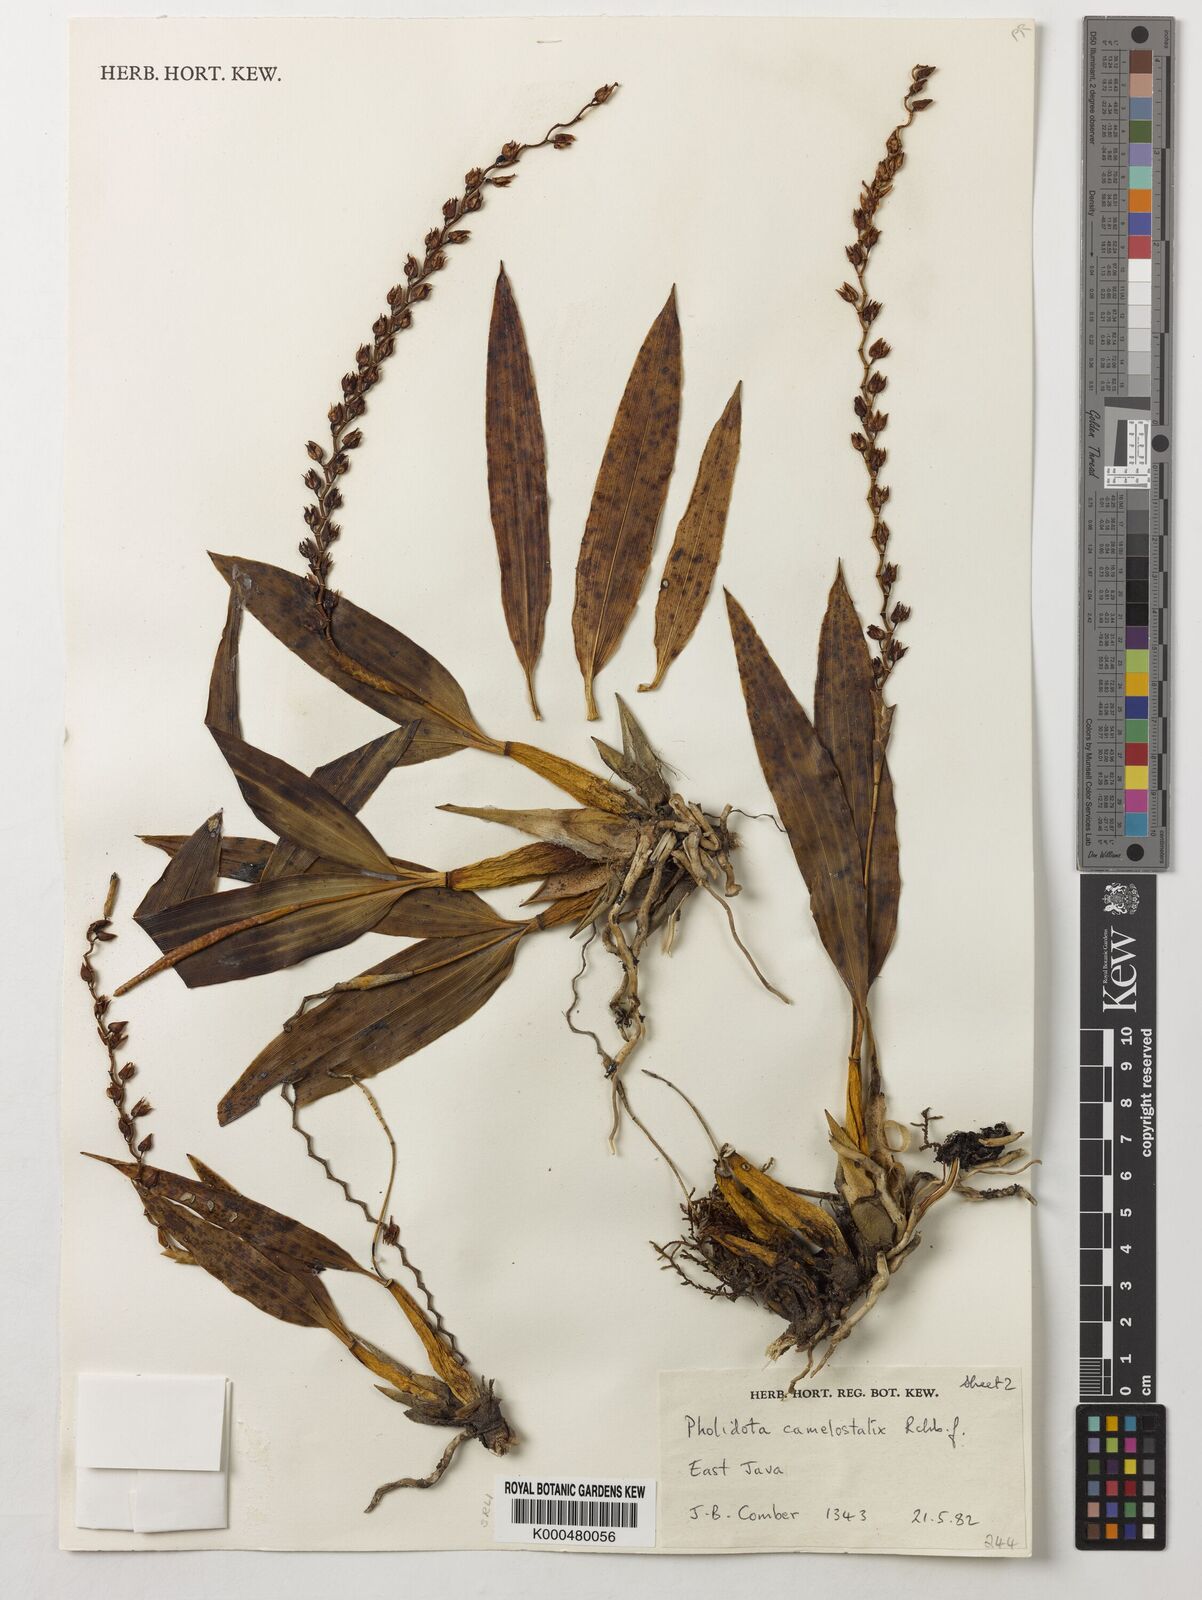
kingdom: Plantae
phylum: Tracheophyta
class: Liliopsida
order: Asparagales
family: Orchidaceae
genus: Coelogyne
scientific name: Coelogyne camelostalix
